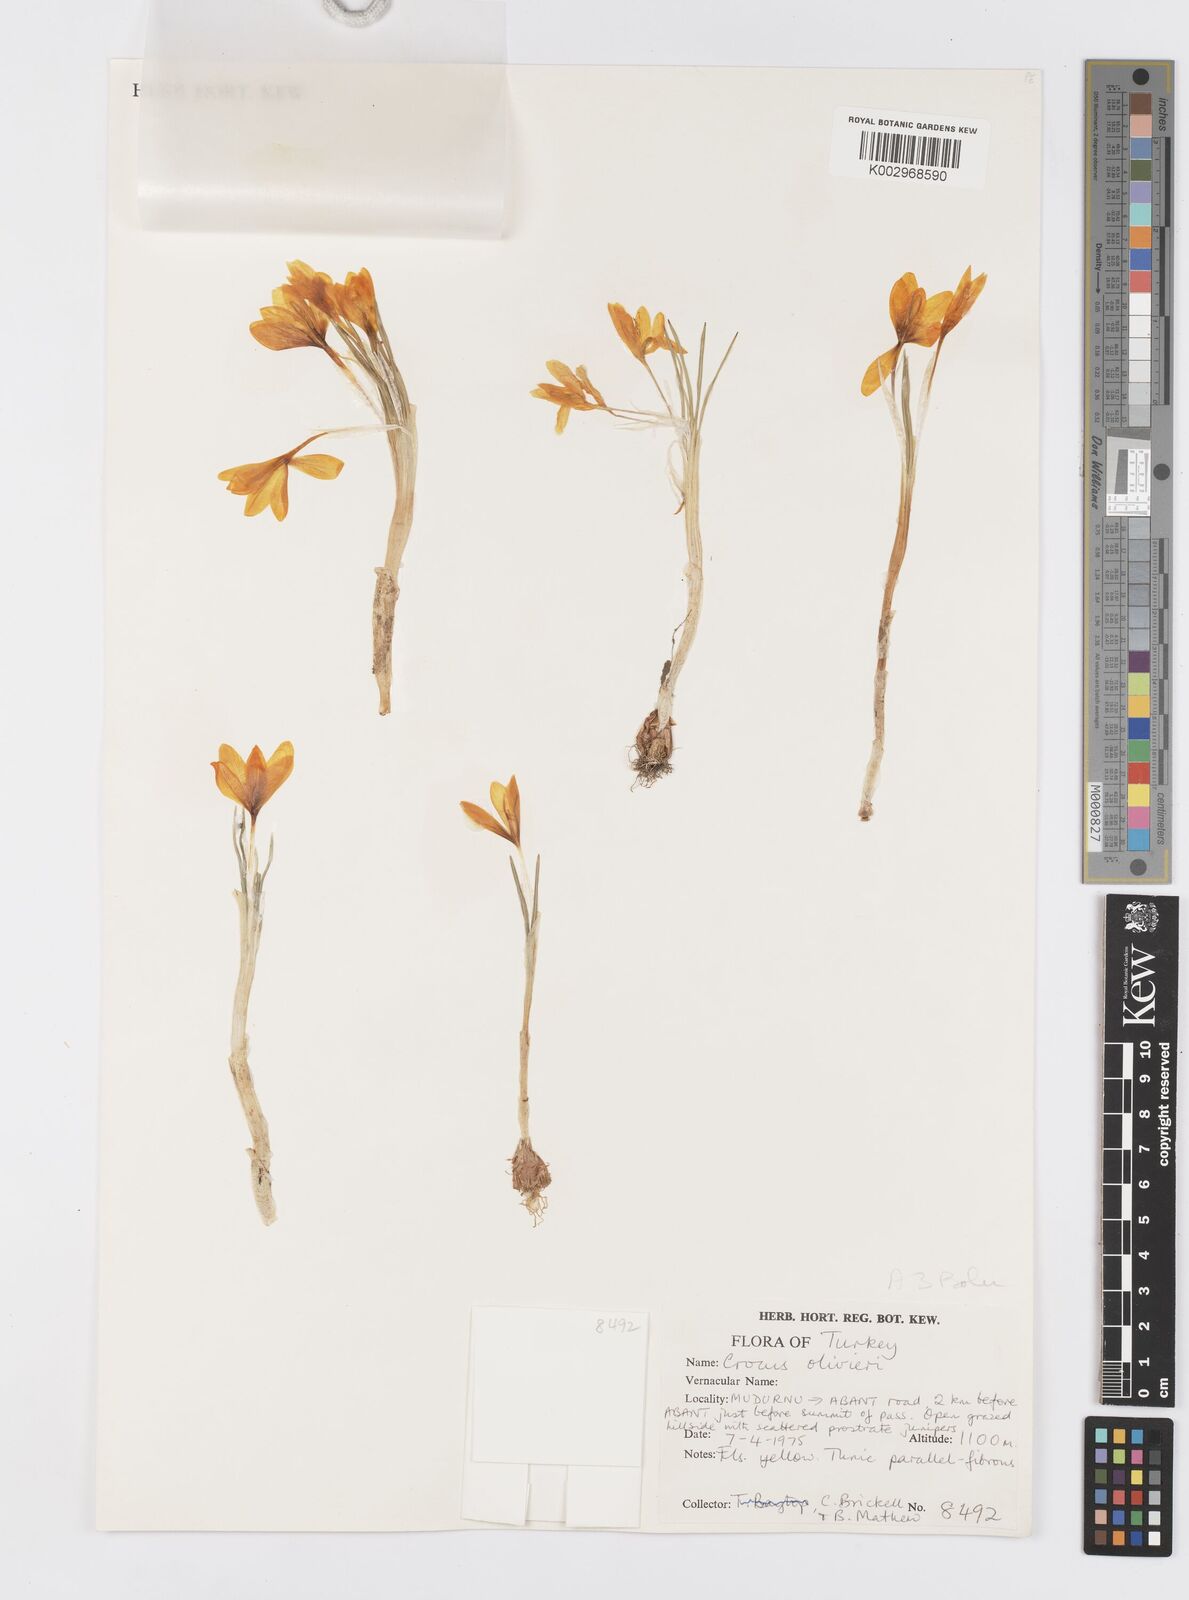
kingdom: Plantae
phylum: Tracheophyta
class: Liliopsida
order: Asparagales
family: Iridaceae
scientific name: Iridaceae
